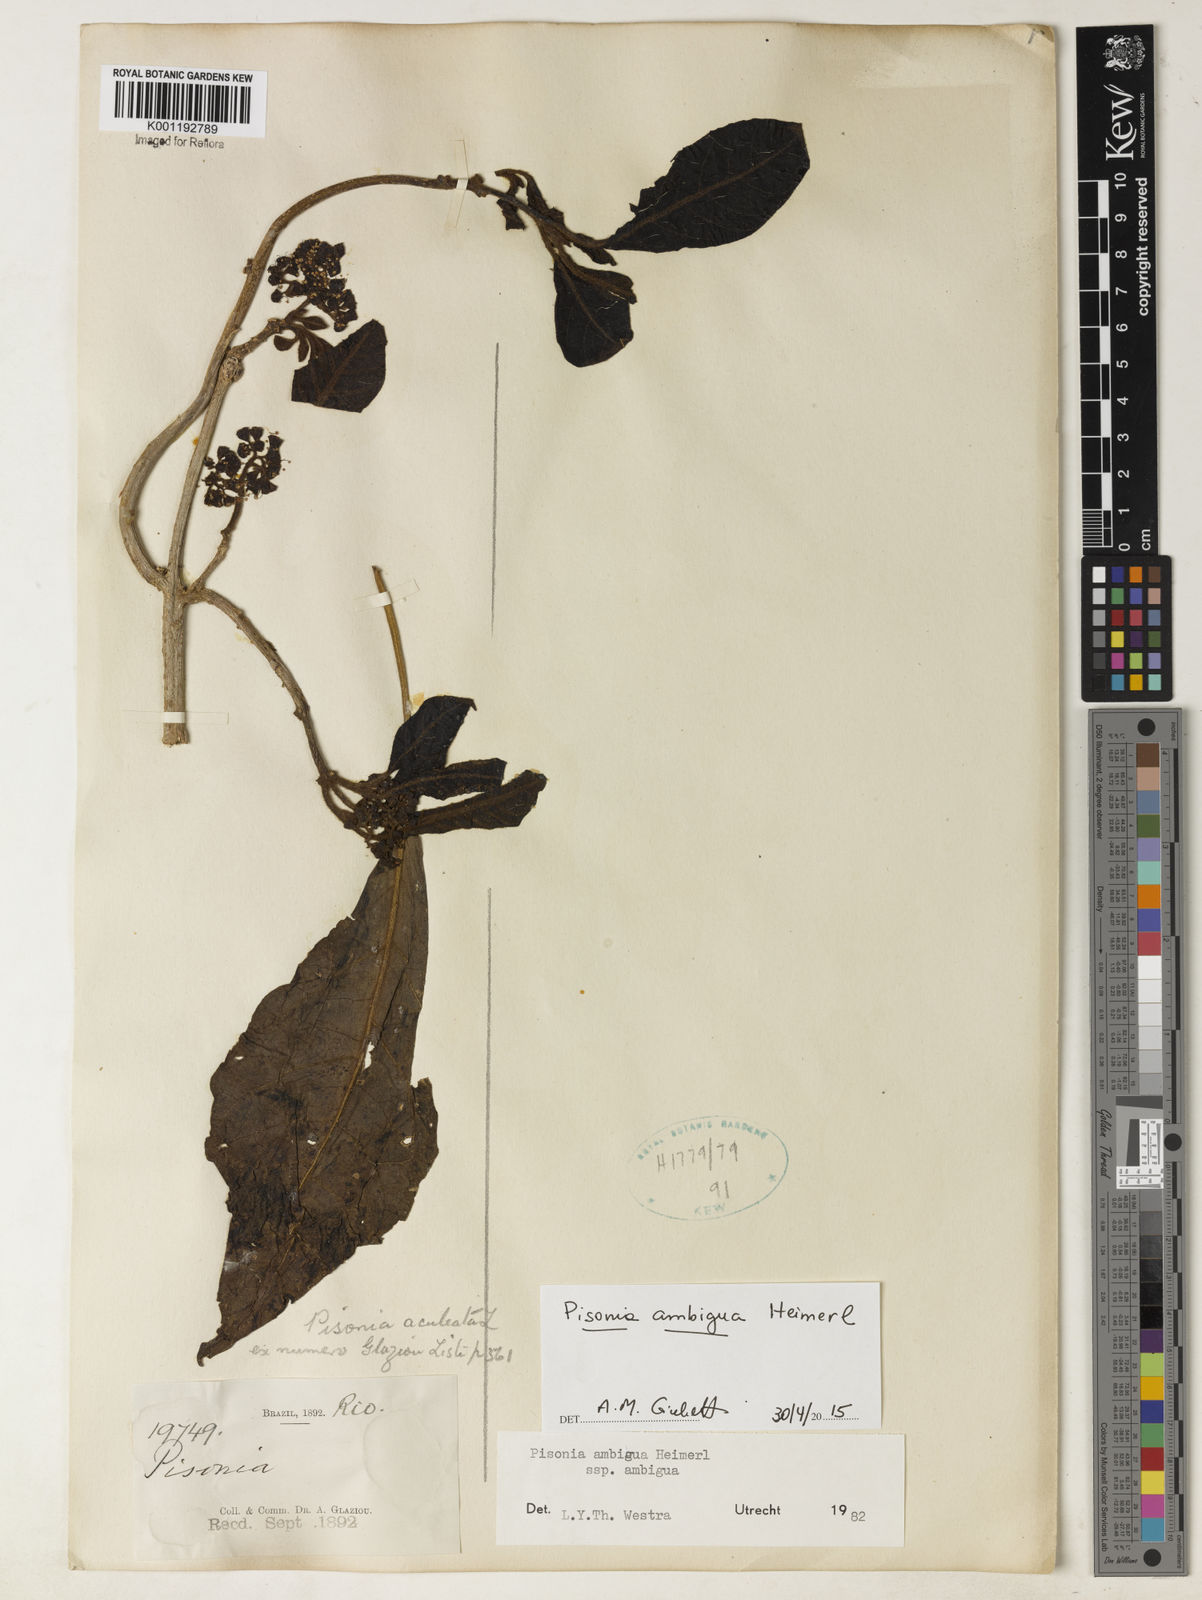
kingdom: Plantae
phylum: Tracheophyta
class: Magnoliopsida
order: Caryophyllales
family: Nyctaginaceae
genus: Pisonia
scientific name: Pisonia ambigua
